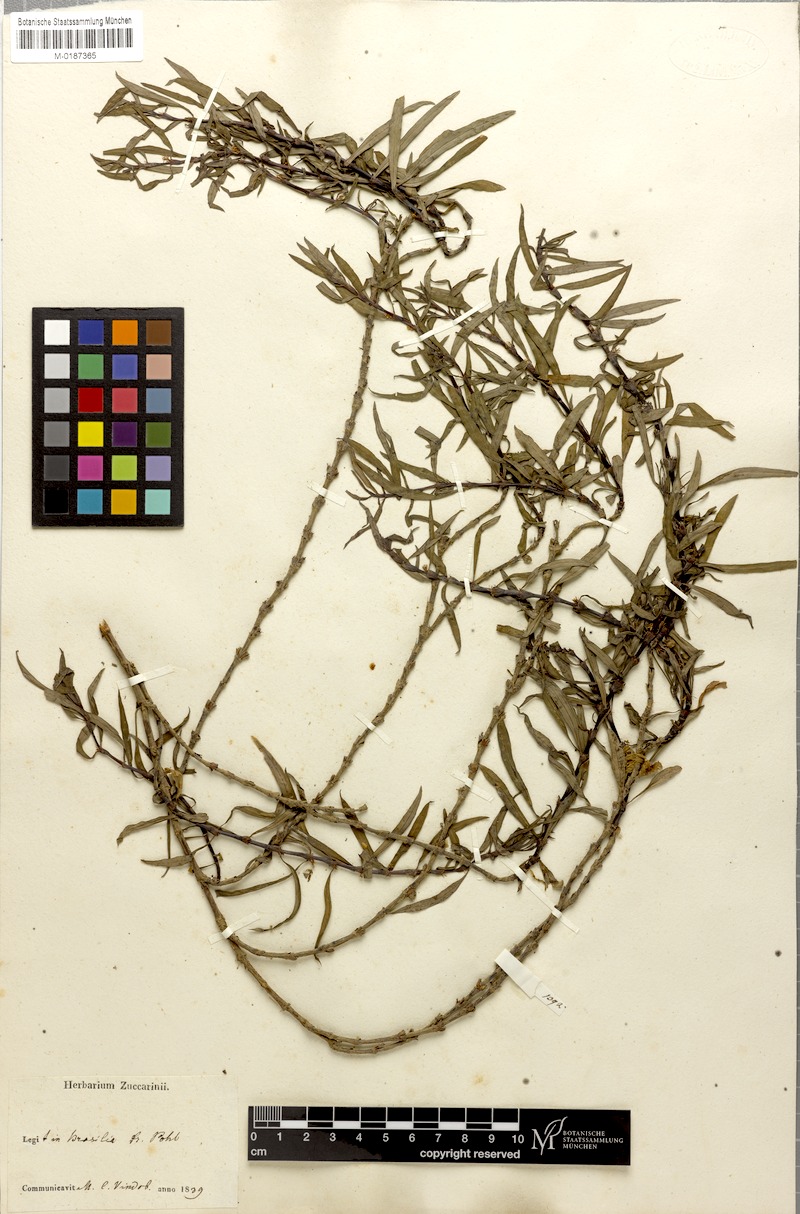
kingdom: Plantae
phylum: Tracheophyta
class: Magnoliopsida
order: Gentianales
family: Rubiaceae
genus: Spermacoce
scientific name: Spermacoce hyssopifolia
